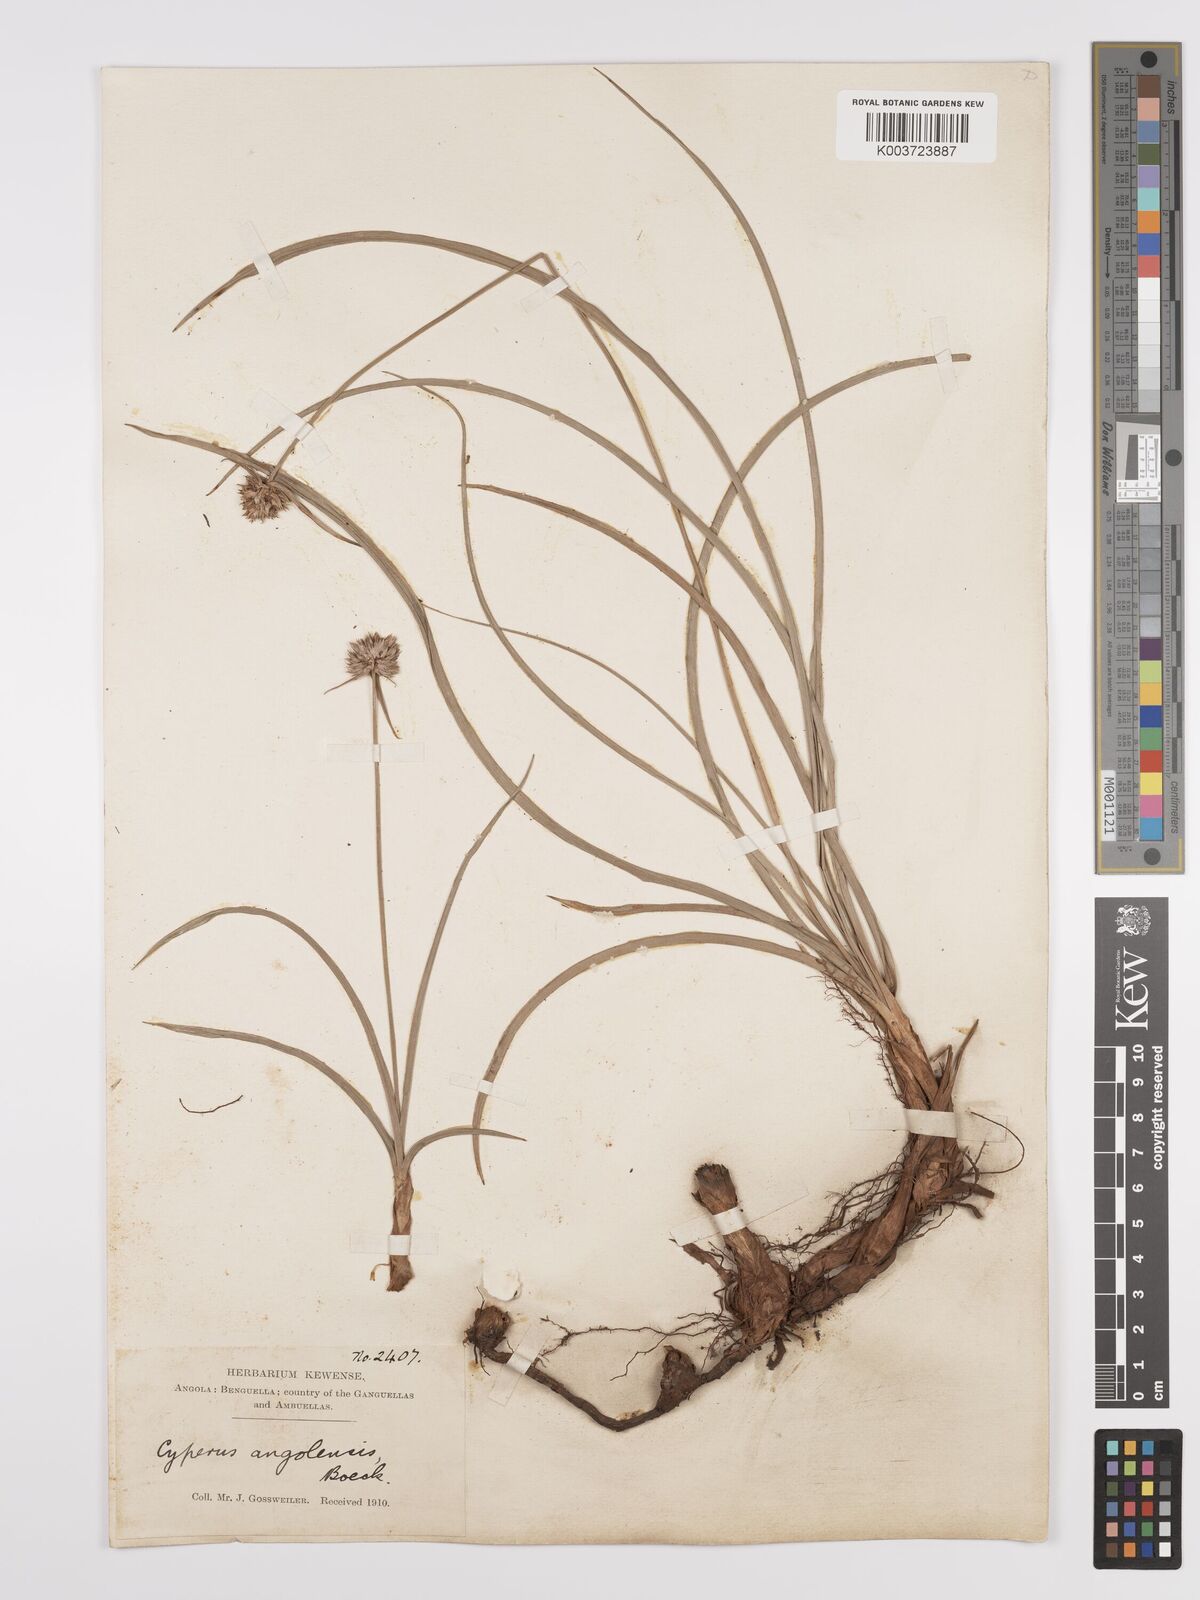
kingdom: Plantae
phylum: Tracheophyta
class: Liliopsida
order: Poales
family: Cyperaceae
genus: Cyperus
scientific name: Cyperus angolensis
